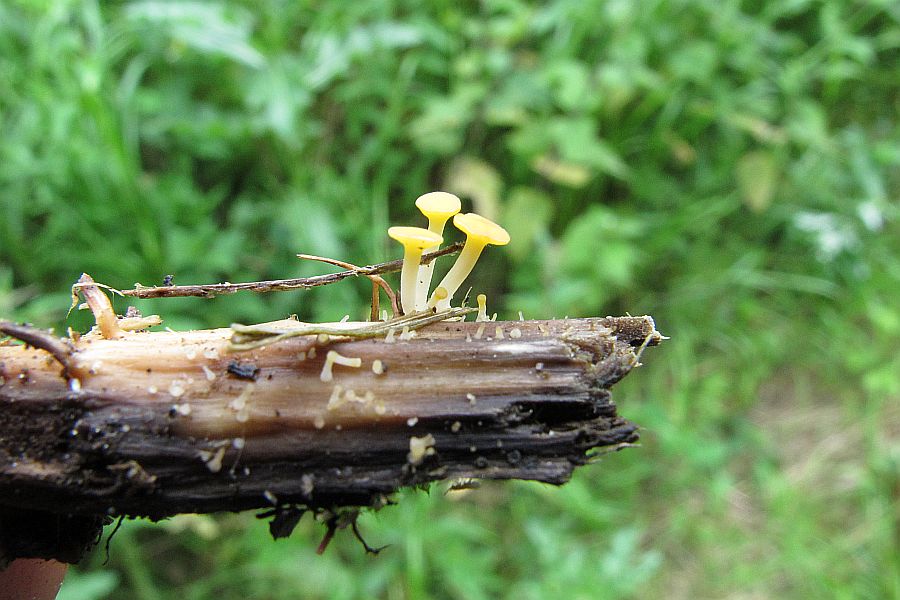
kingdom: Fungi
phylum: Ascomycota
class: Leotiomycetes
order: Helotiales
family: Helotiaceae
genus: Hymenoscyphus
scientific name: Hymenoscyphus menthae
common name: eng-stilkskive
